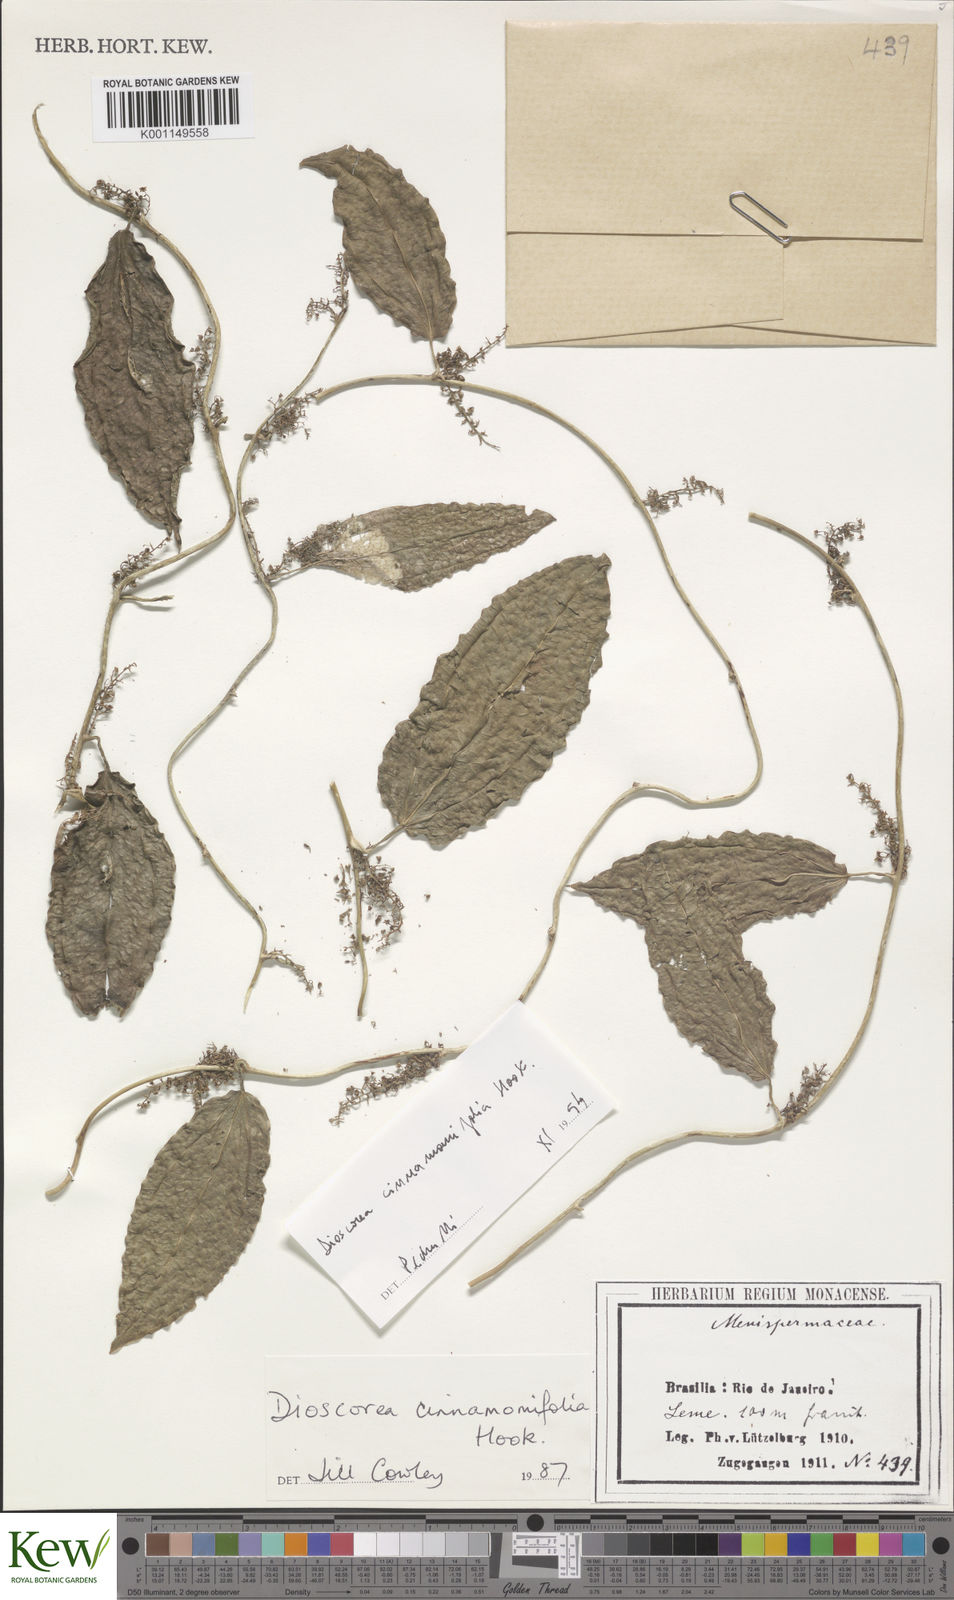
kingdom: Plantae
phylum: Tracheophyta
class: Liliopsida
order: Dioscoreales
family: Dioscoreaceae
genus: Dioscorea
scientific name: Dioscorea cinnamomifolia
